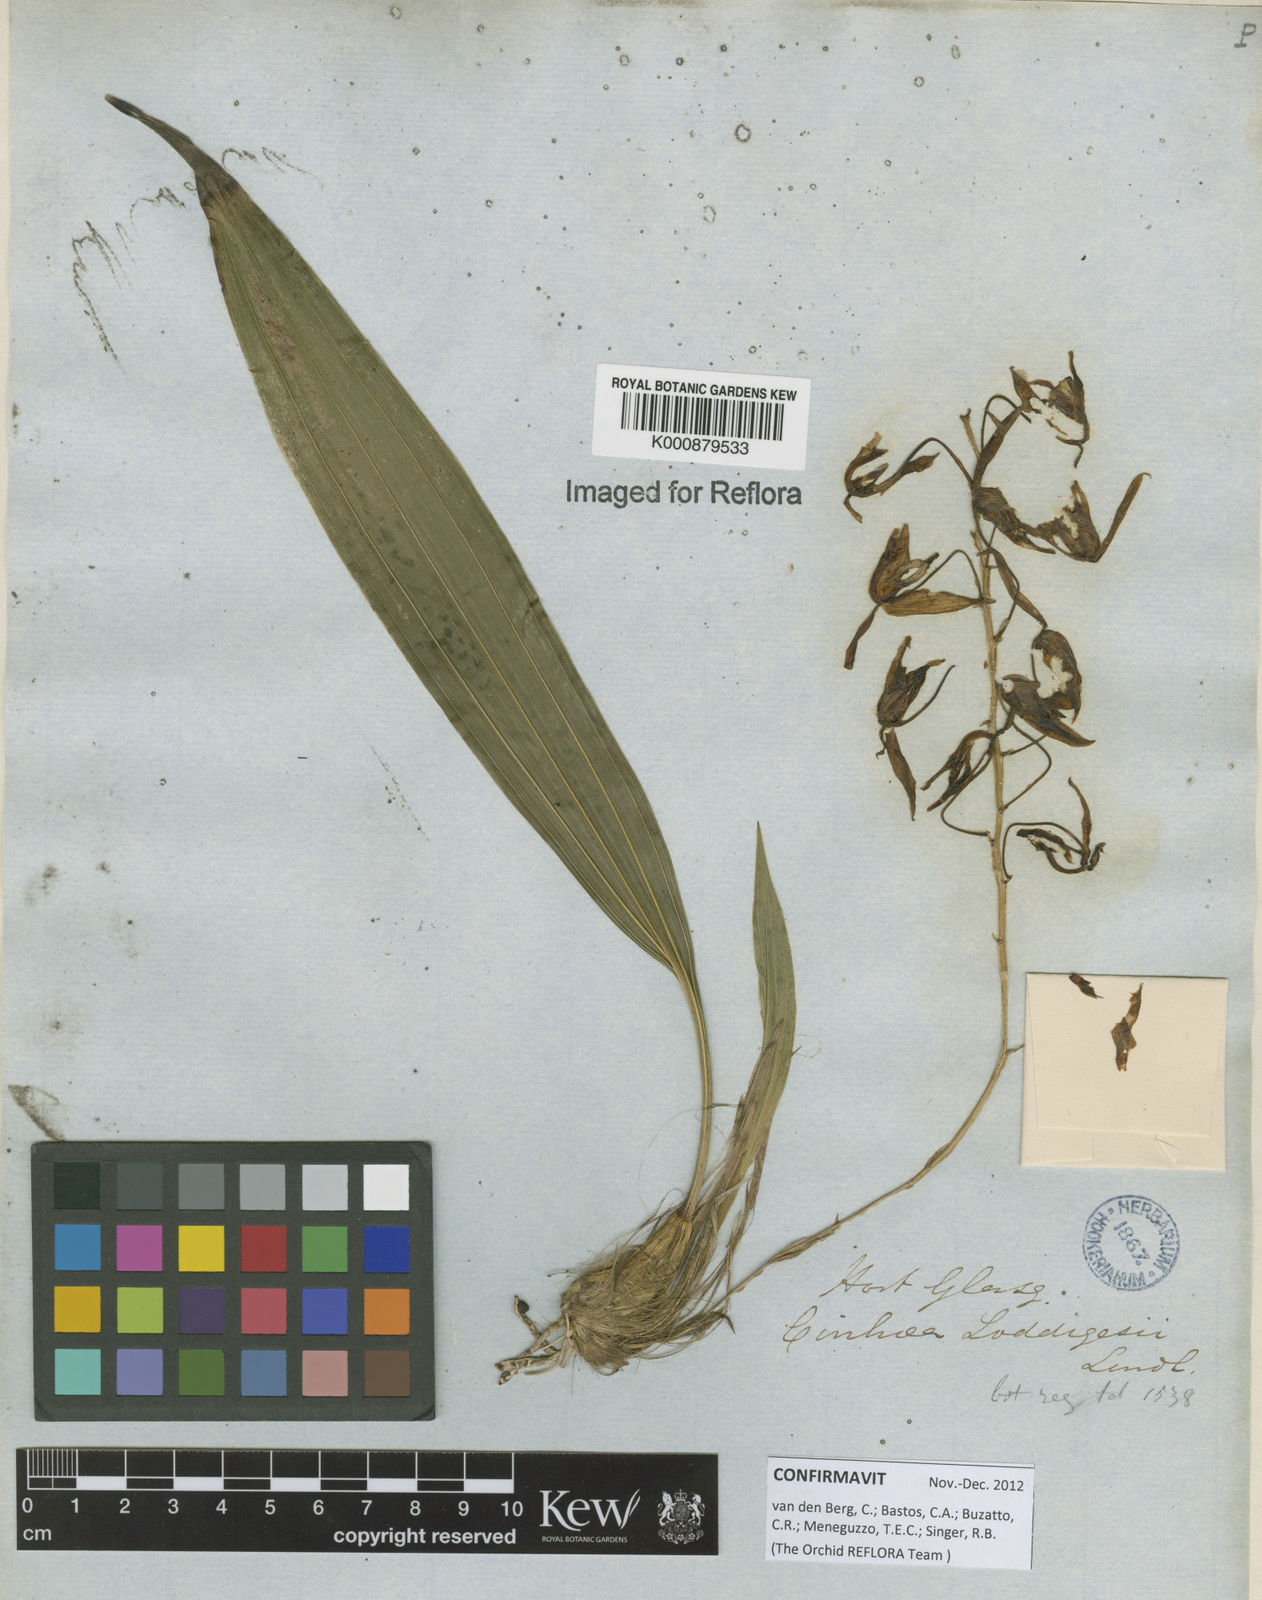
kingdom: Plantae
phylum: Tracheophyta
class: Liliopsida
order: Asparagales
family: Orchidaceae
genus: Cirrhaea
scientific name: Cirrhaea dependens
